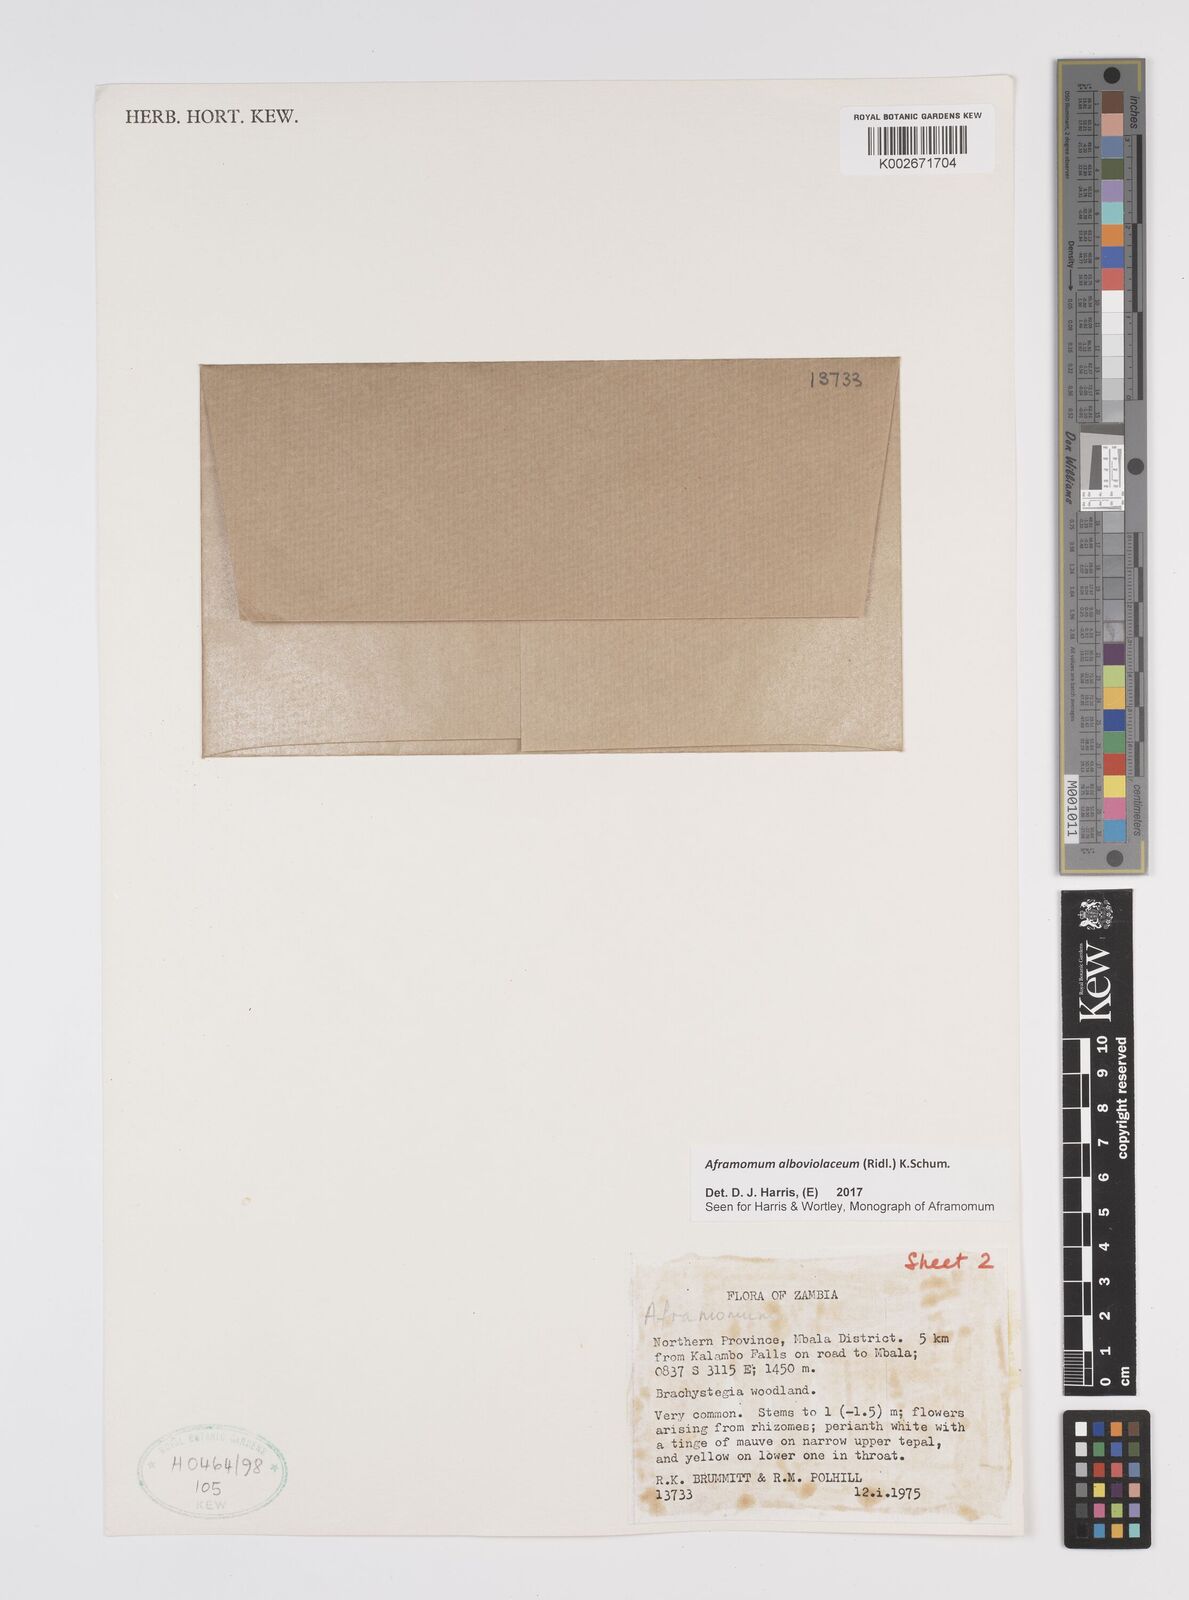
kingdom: Plantae
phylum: Tracheophyta
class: Liliopsida
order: Zingiberales
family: Zingiberaceae
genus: Aframomum
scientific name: Aframomum alboviolaceum
